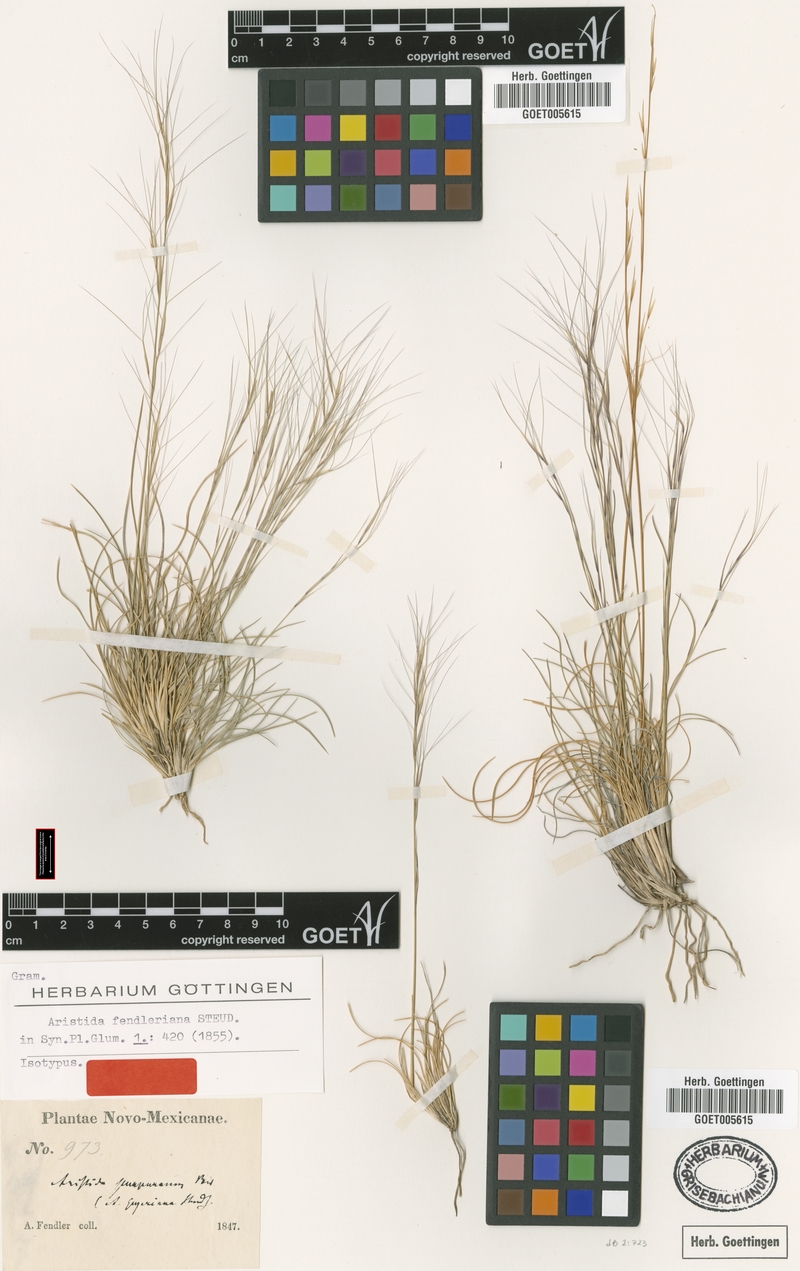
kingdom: Plantae
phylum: Tracheophyta
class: Liliopsida
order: Poales
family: Poaceae
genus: Aristida
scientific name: Aristida fendleriana
